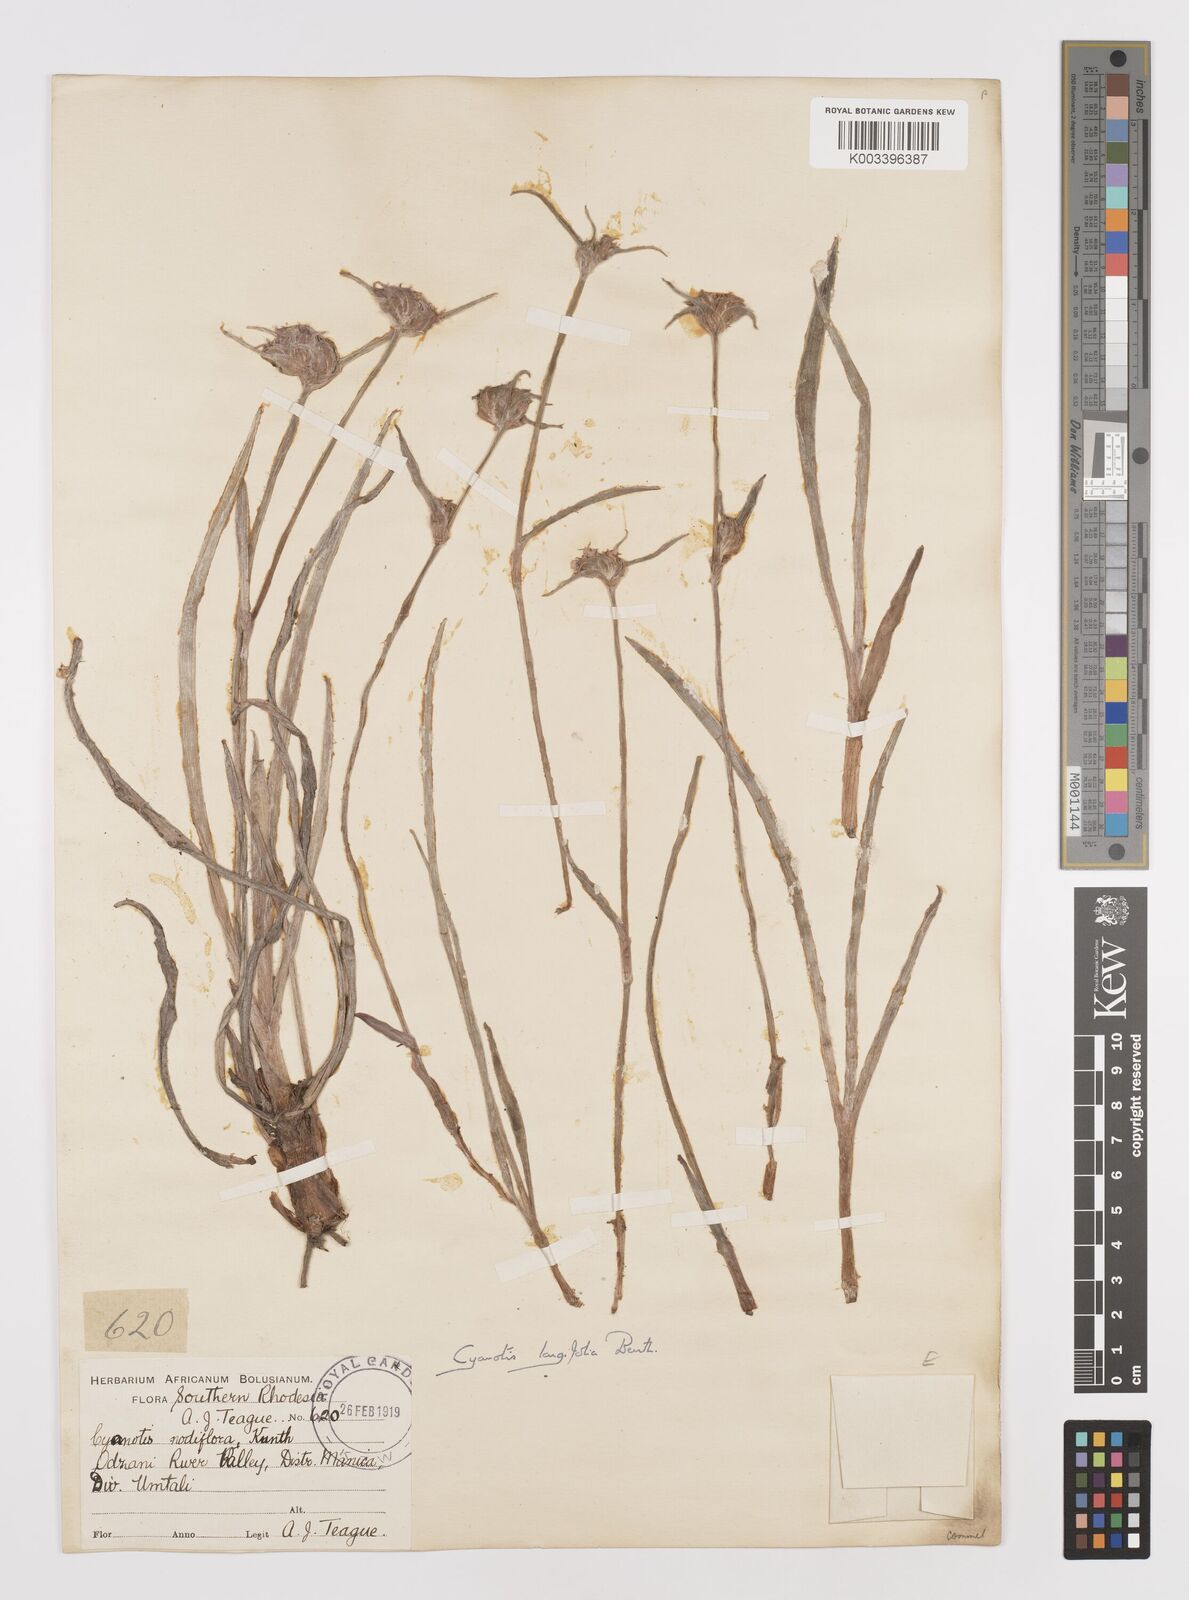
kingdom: Plantae
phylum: Tracheophyta
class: Liliopsida
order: Commelinales
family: Commelinaceae
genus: Cyanotis
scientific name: Cyanotis longifolia
